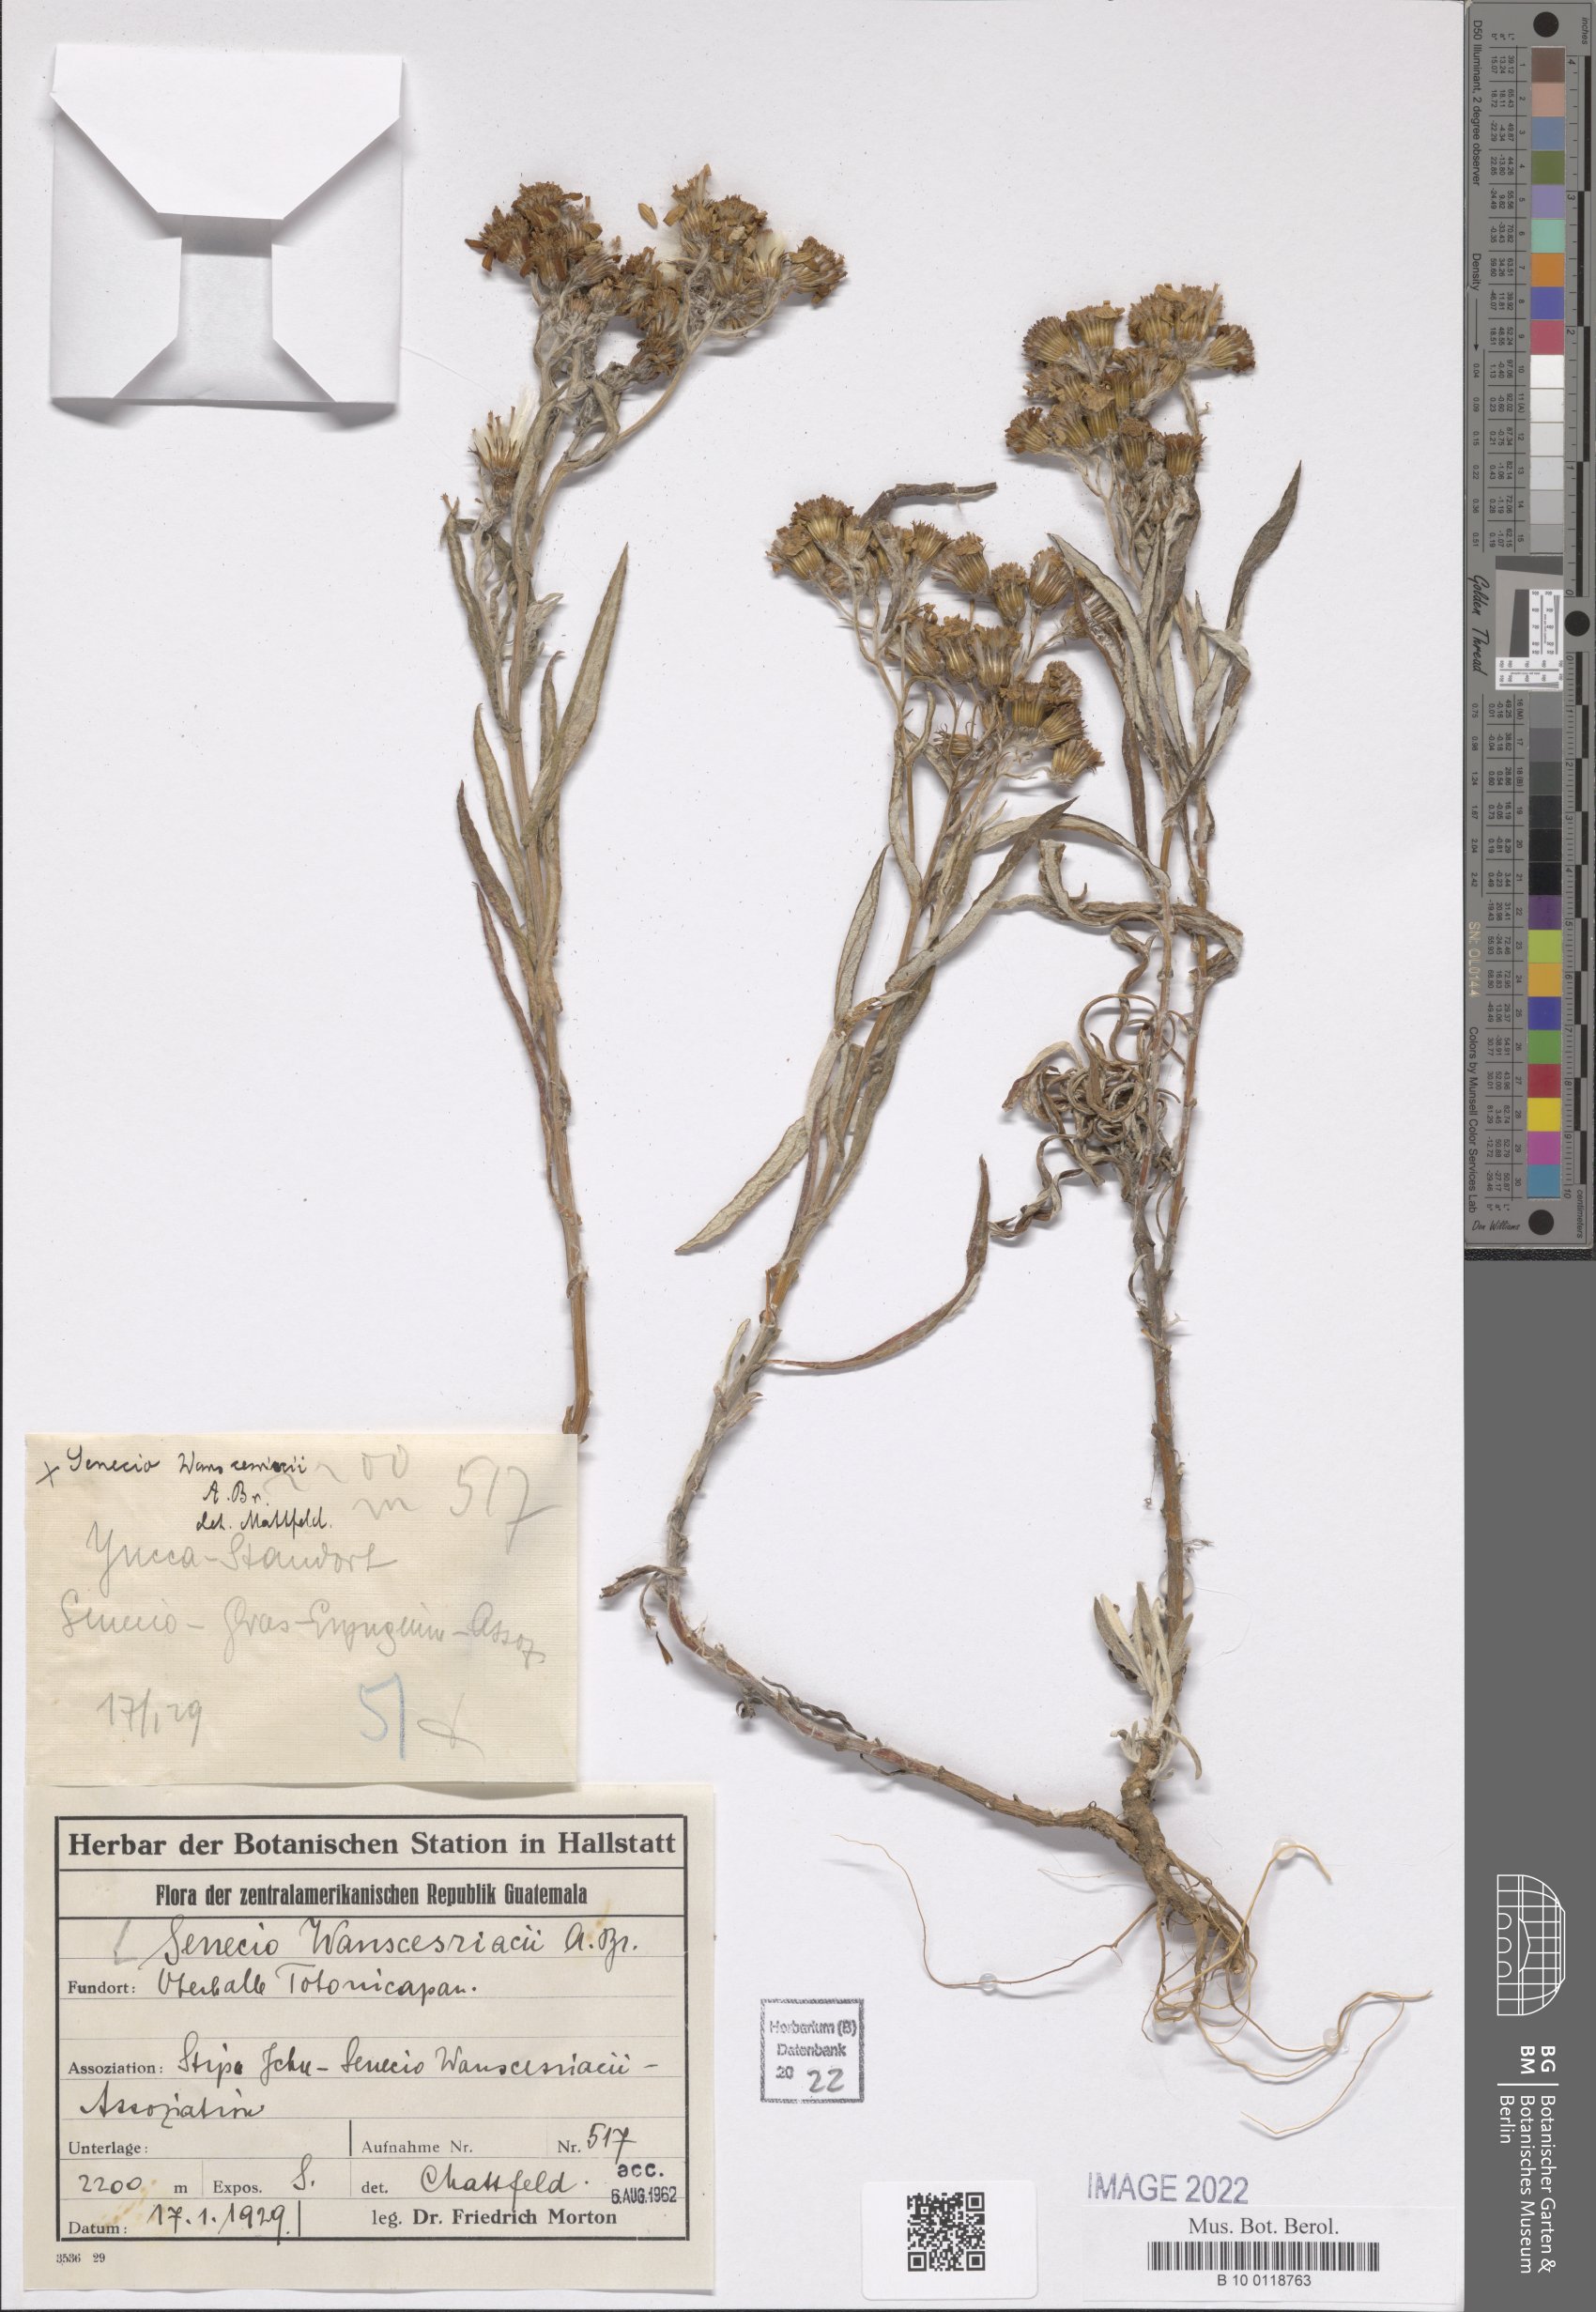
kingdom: Plantae
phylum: Tracheophyta
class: Magnoliopsida
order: Asterales
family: Asteraceae
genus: Senecio
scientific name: Senecio warszewiczii
